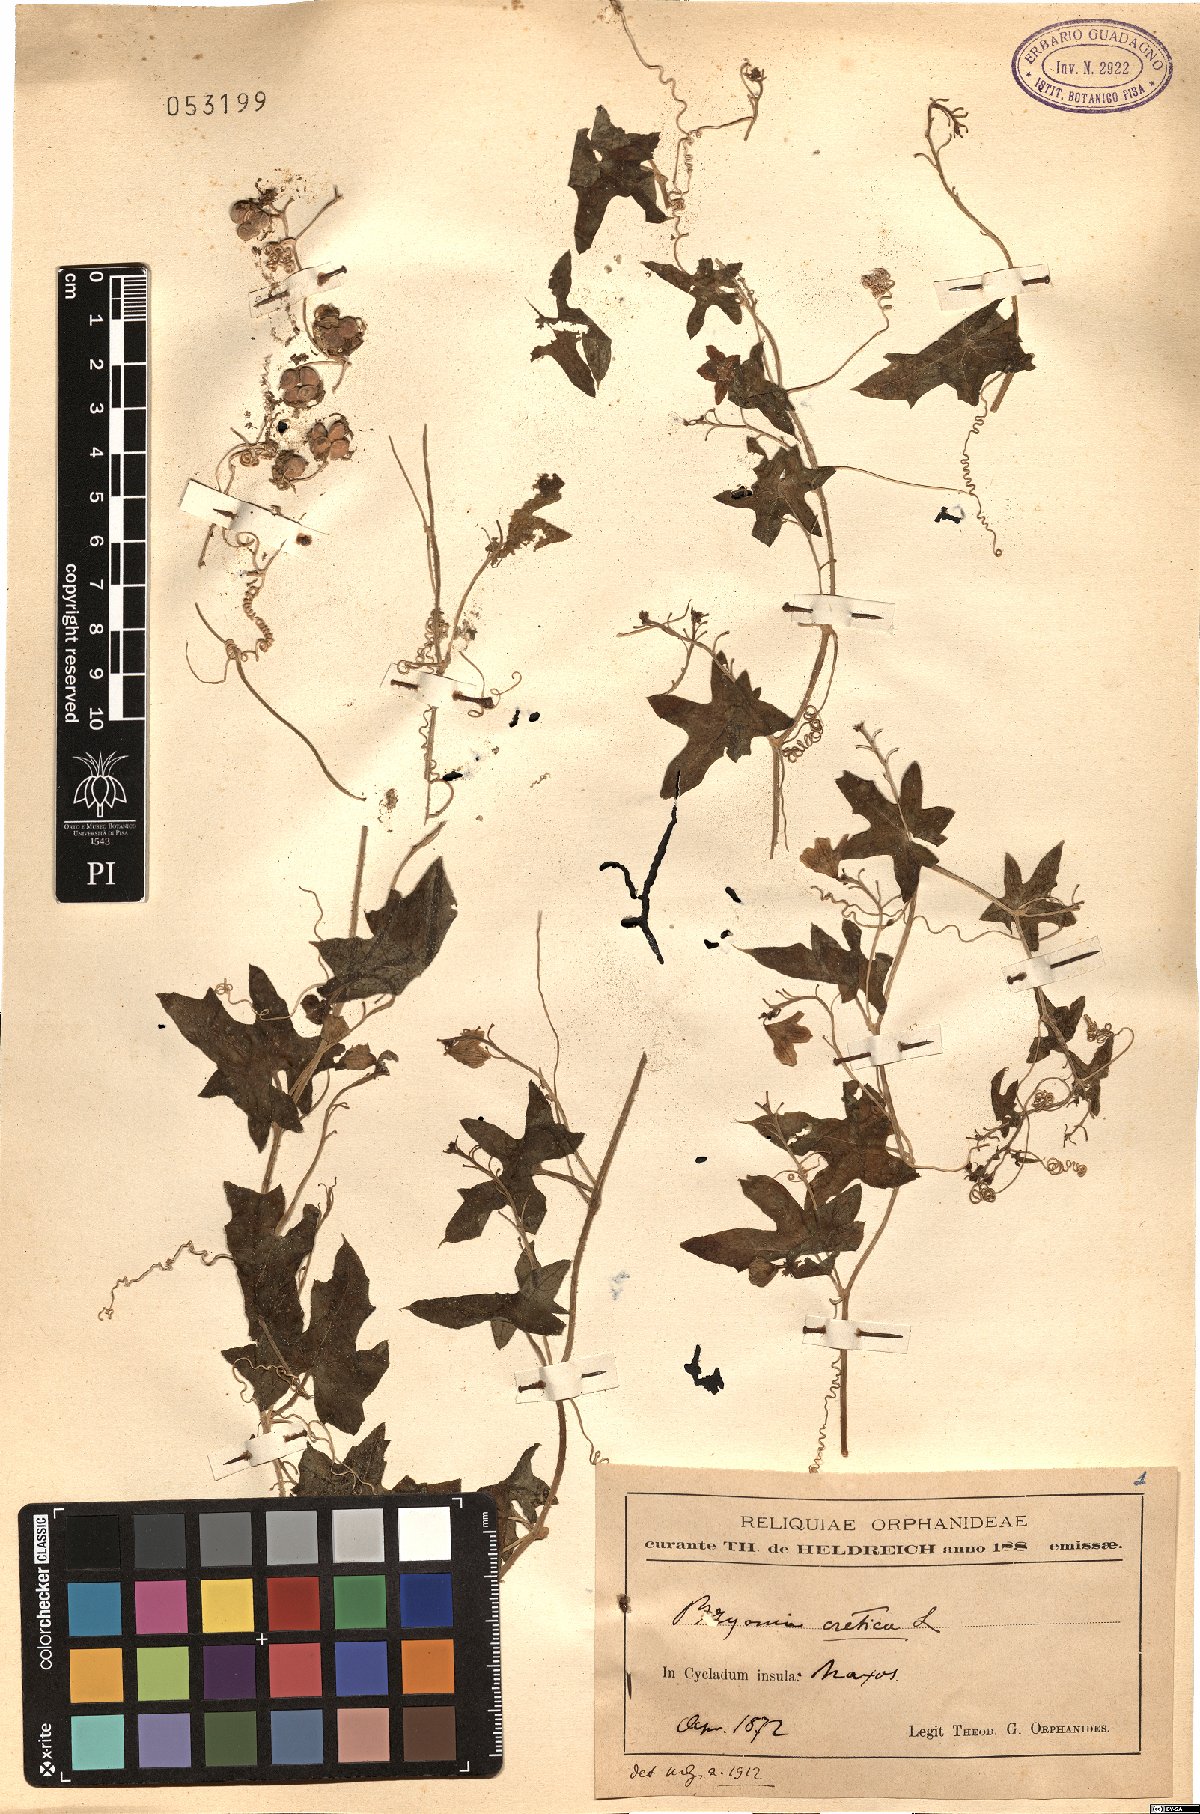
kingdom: Plantae
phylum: Tracheophyta
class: Magnoliopsida
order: Cucurbitales
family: Cucurbitaceae
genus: Bryonia
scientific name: Bryonia cretica
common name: Cretan bryony
